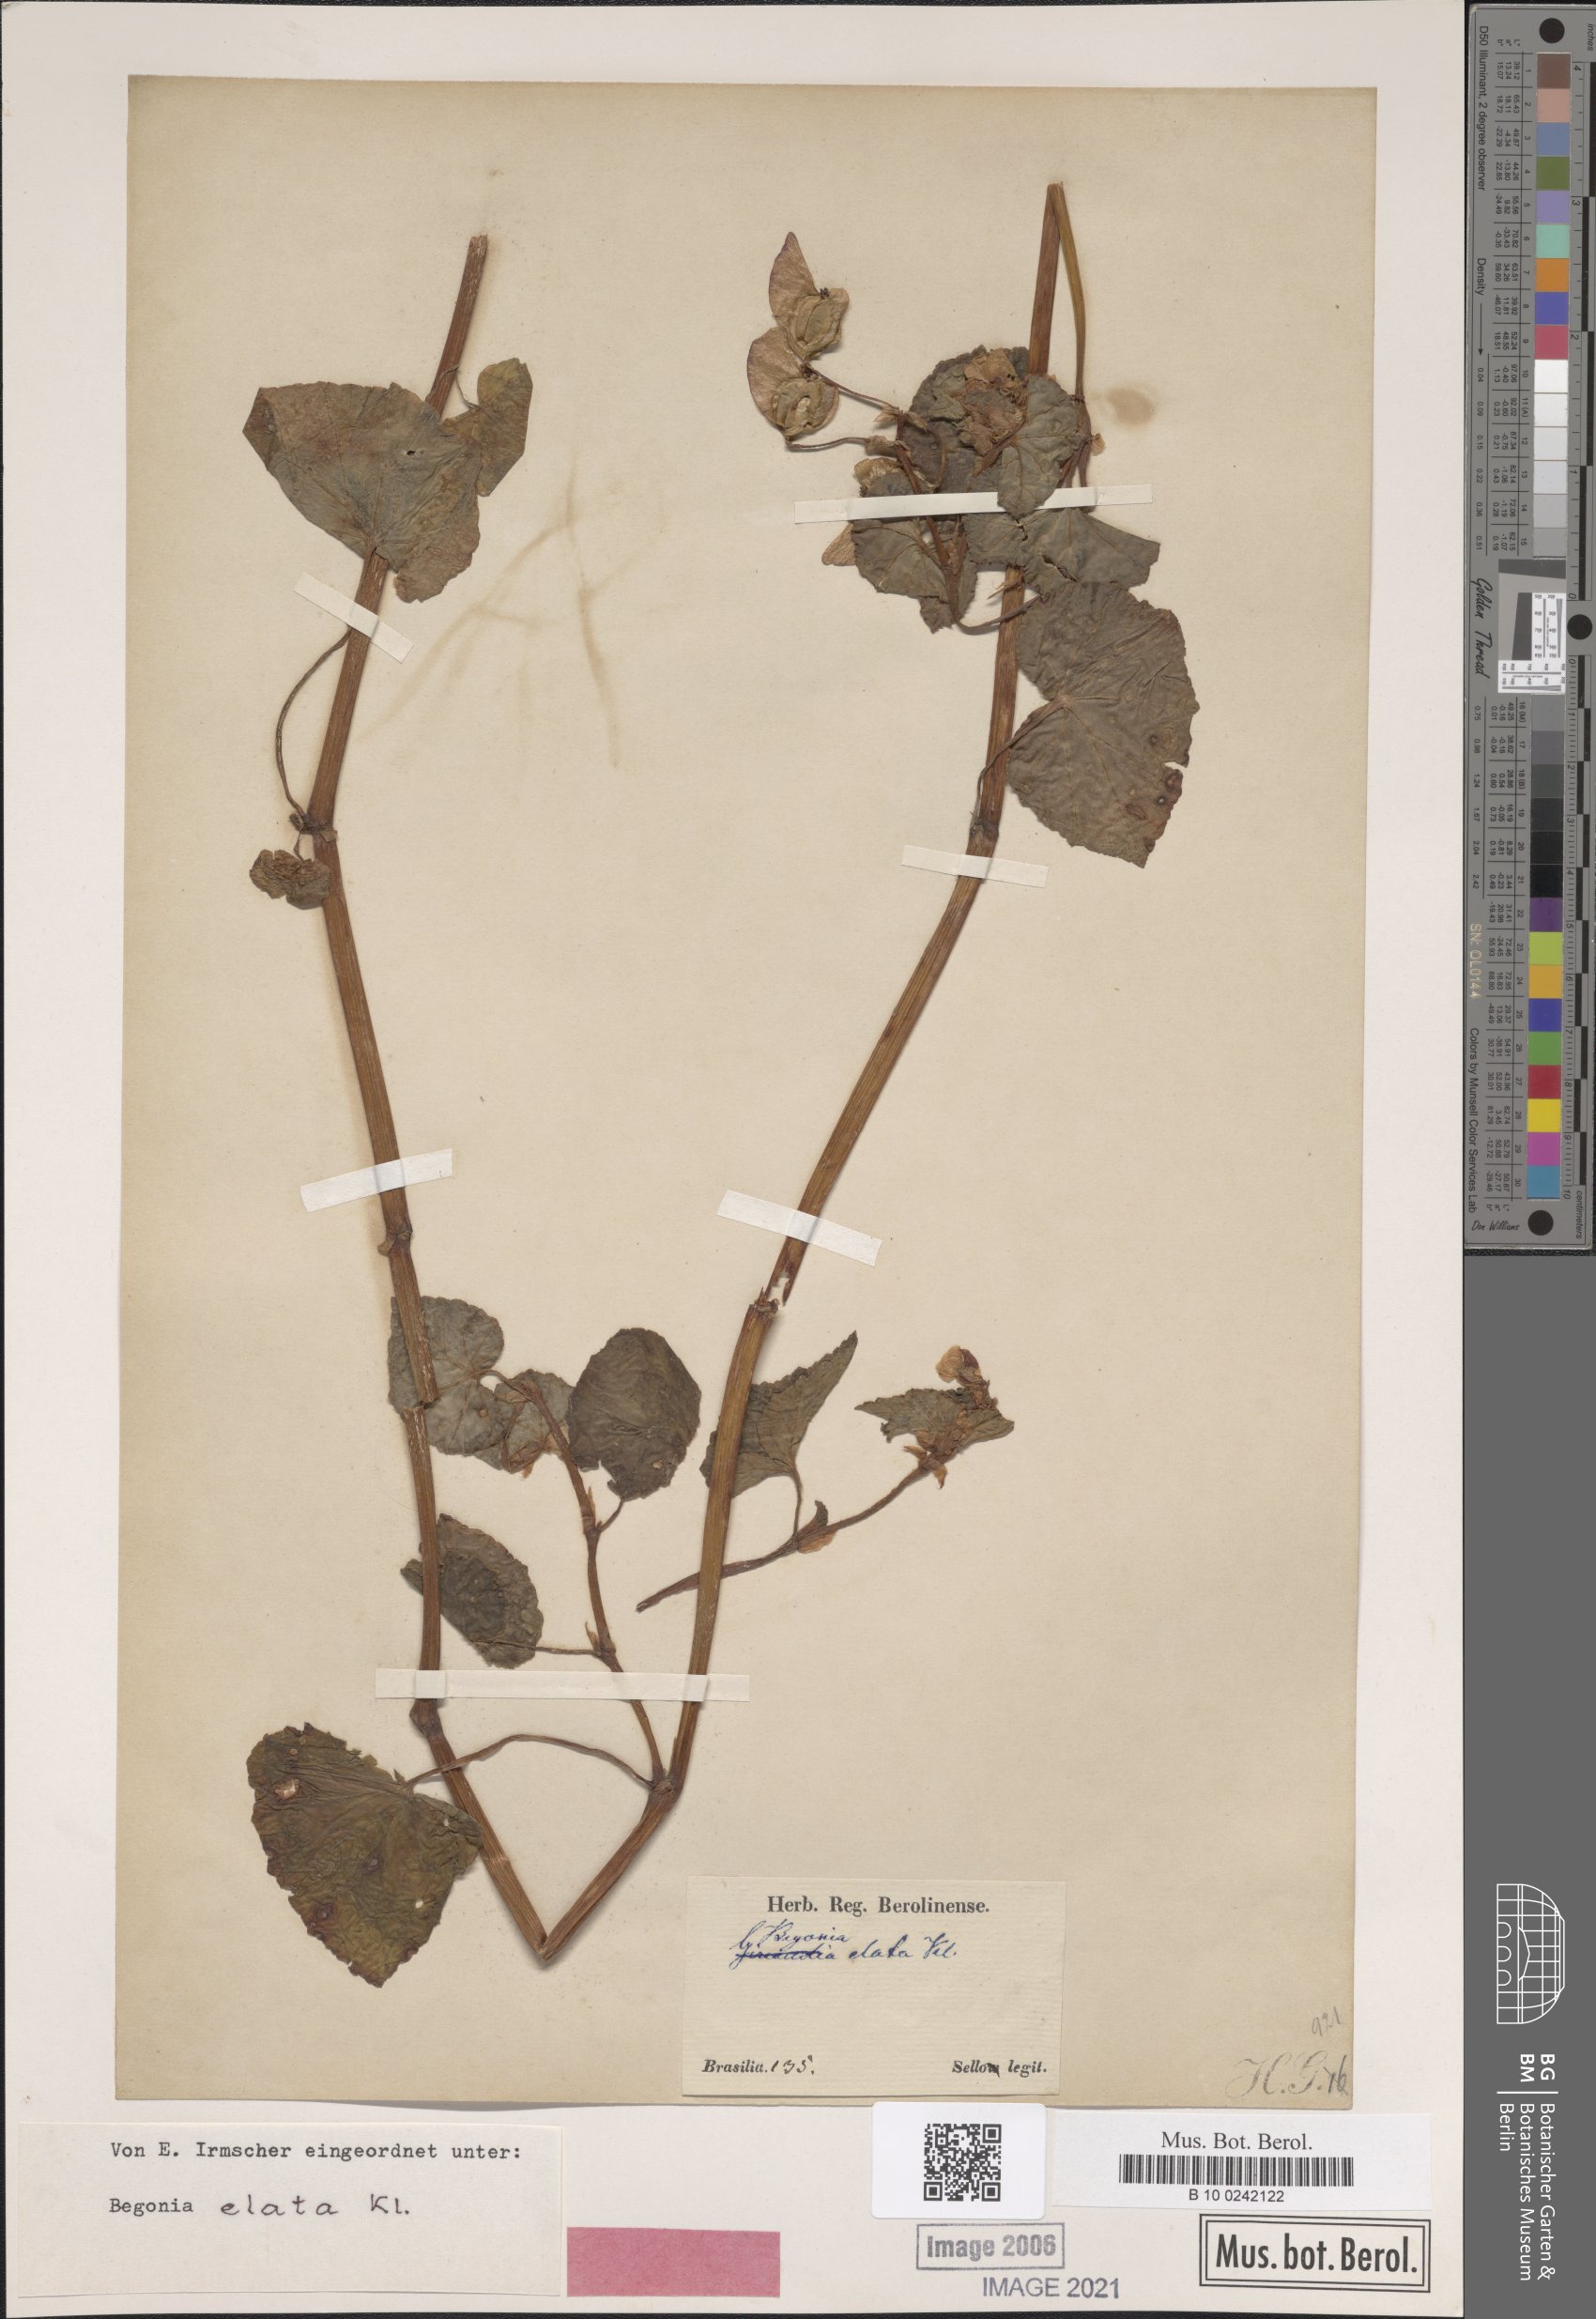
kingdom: Plantae
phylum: Tracheophyta
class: Magnoliopsida
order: Cucurbitales
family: Begoniaceae
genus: Begonia
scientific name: Begonia fischeri
